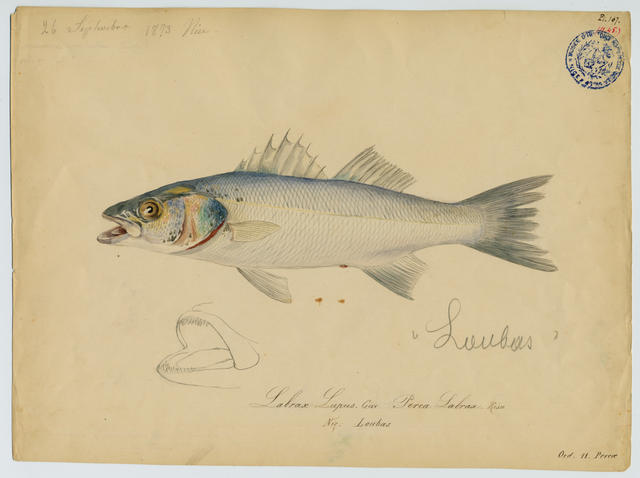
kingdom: Animalia
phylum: Chordata
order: Perciformes
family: Moronidae
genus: Dicentrarchus
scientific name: Dicentrarchus punctatus
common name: Black-spotted bass
